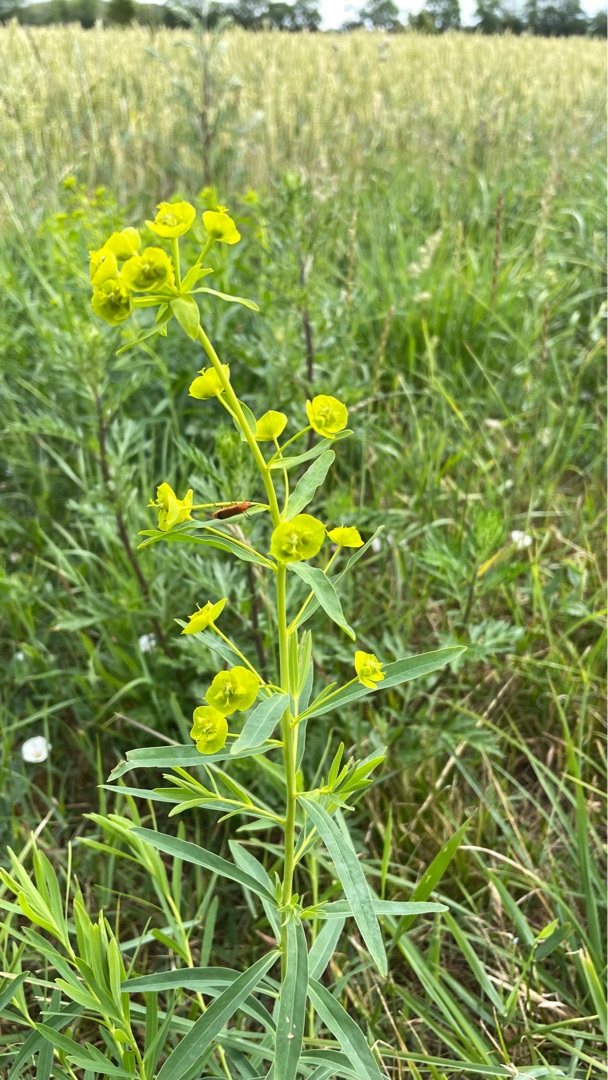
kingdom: Plantae
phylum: Tracheophyta
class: Magnoliopsida
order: Malpighiales
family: Euphorbiaceae
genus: Euphorbia
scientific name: Euphorbia tommasiniana
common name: Ris-vortemælk
